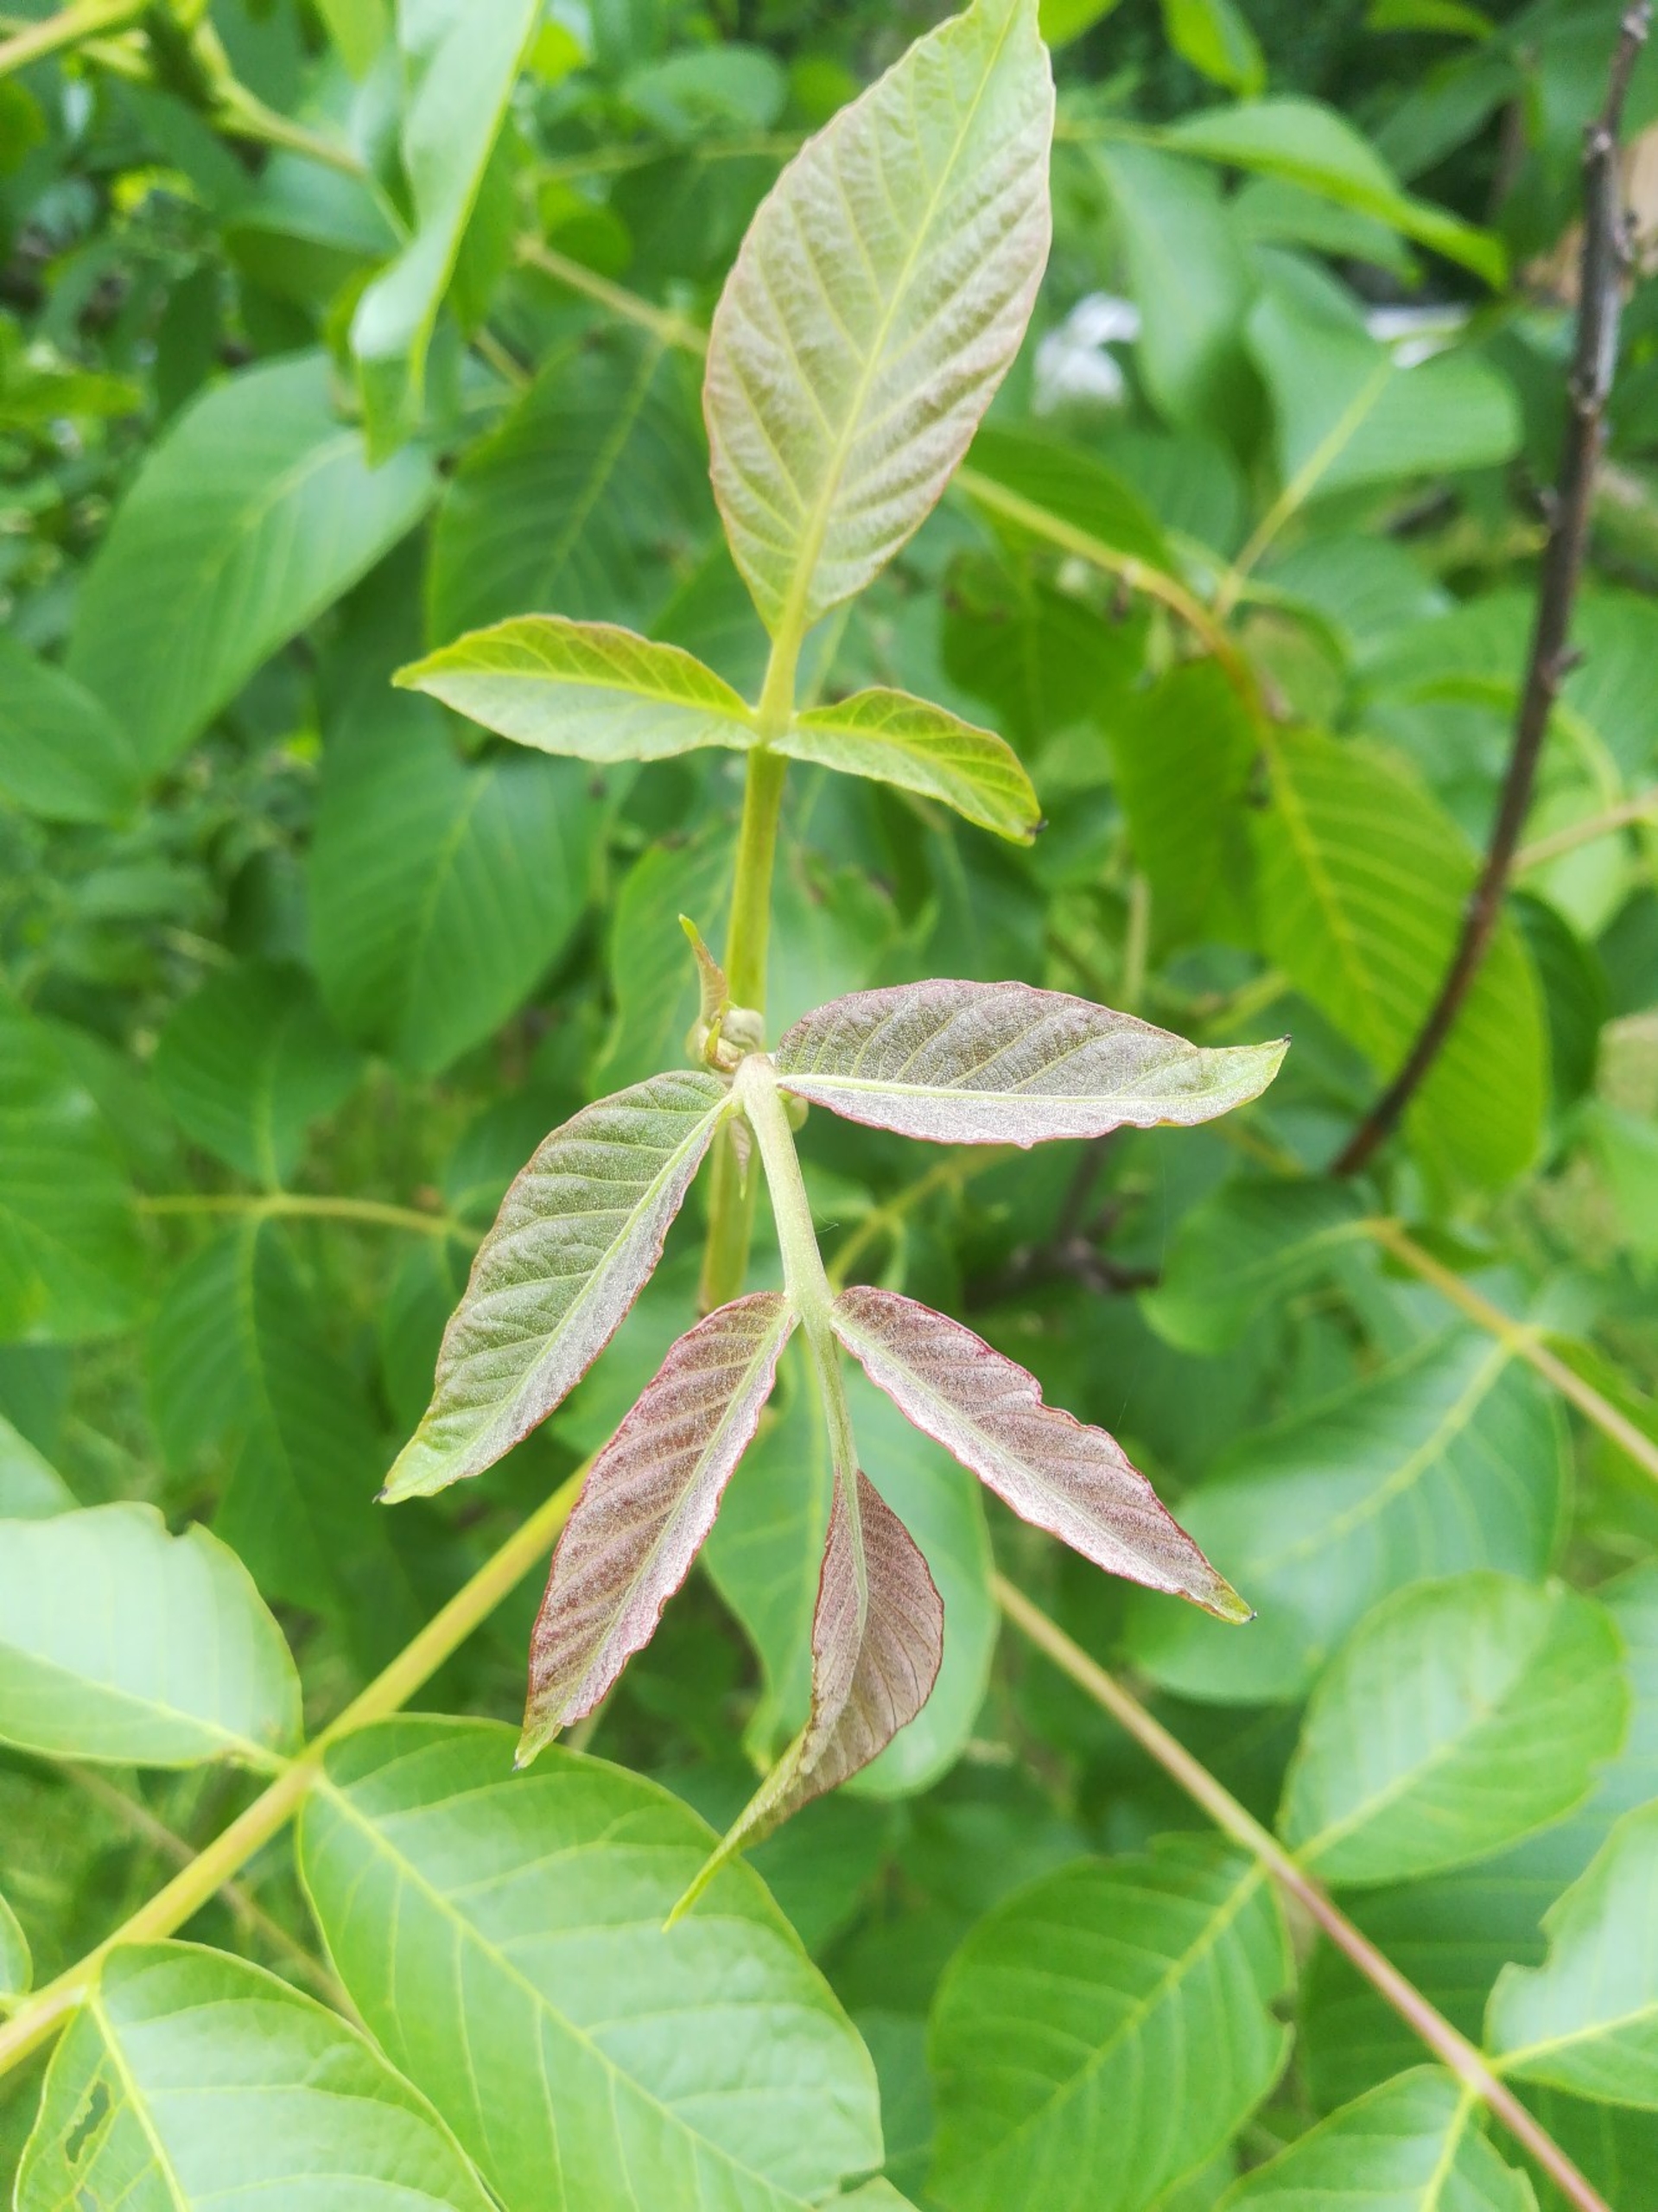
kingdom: Plantae
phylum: Tracheophyta
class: Magnoliopsida
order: Fagales
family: Juglandaceae
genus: Juglans
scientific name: Juglans regia
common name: Almindelig valnød
